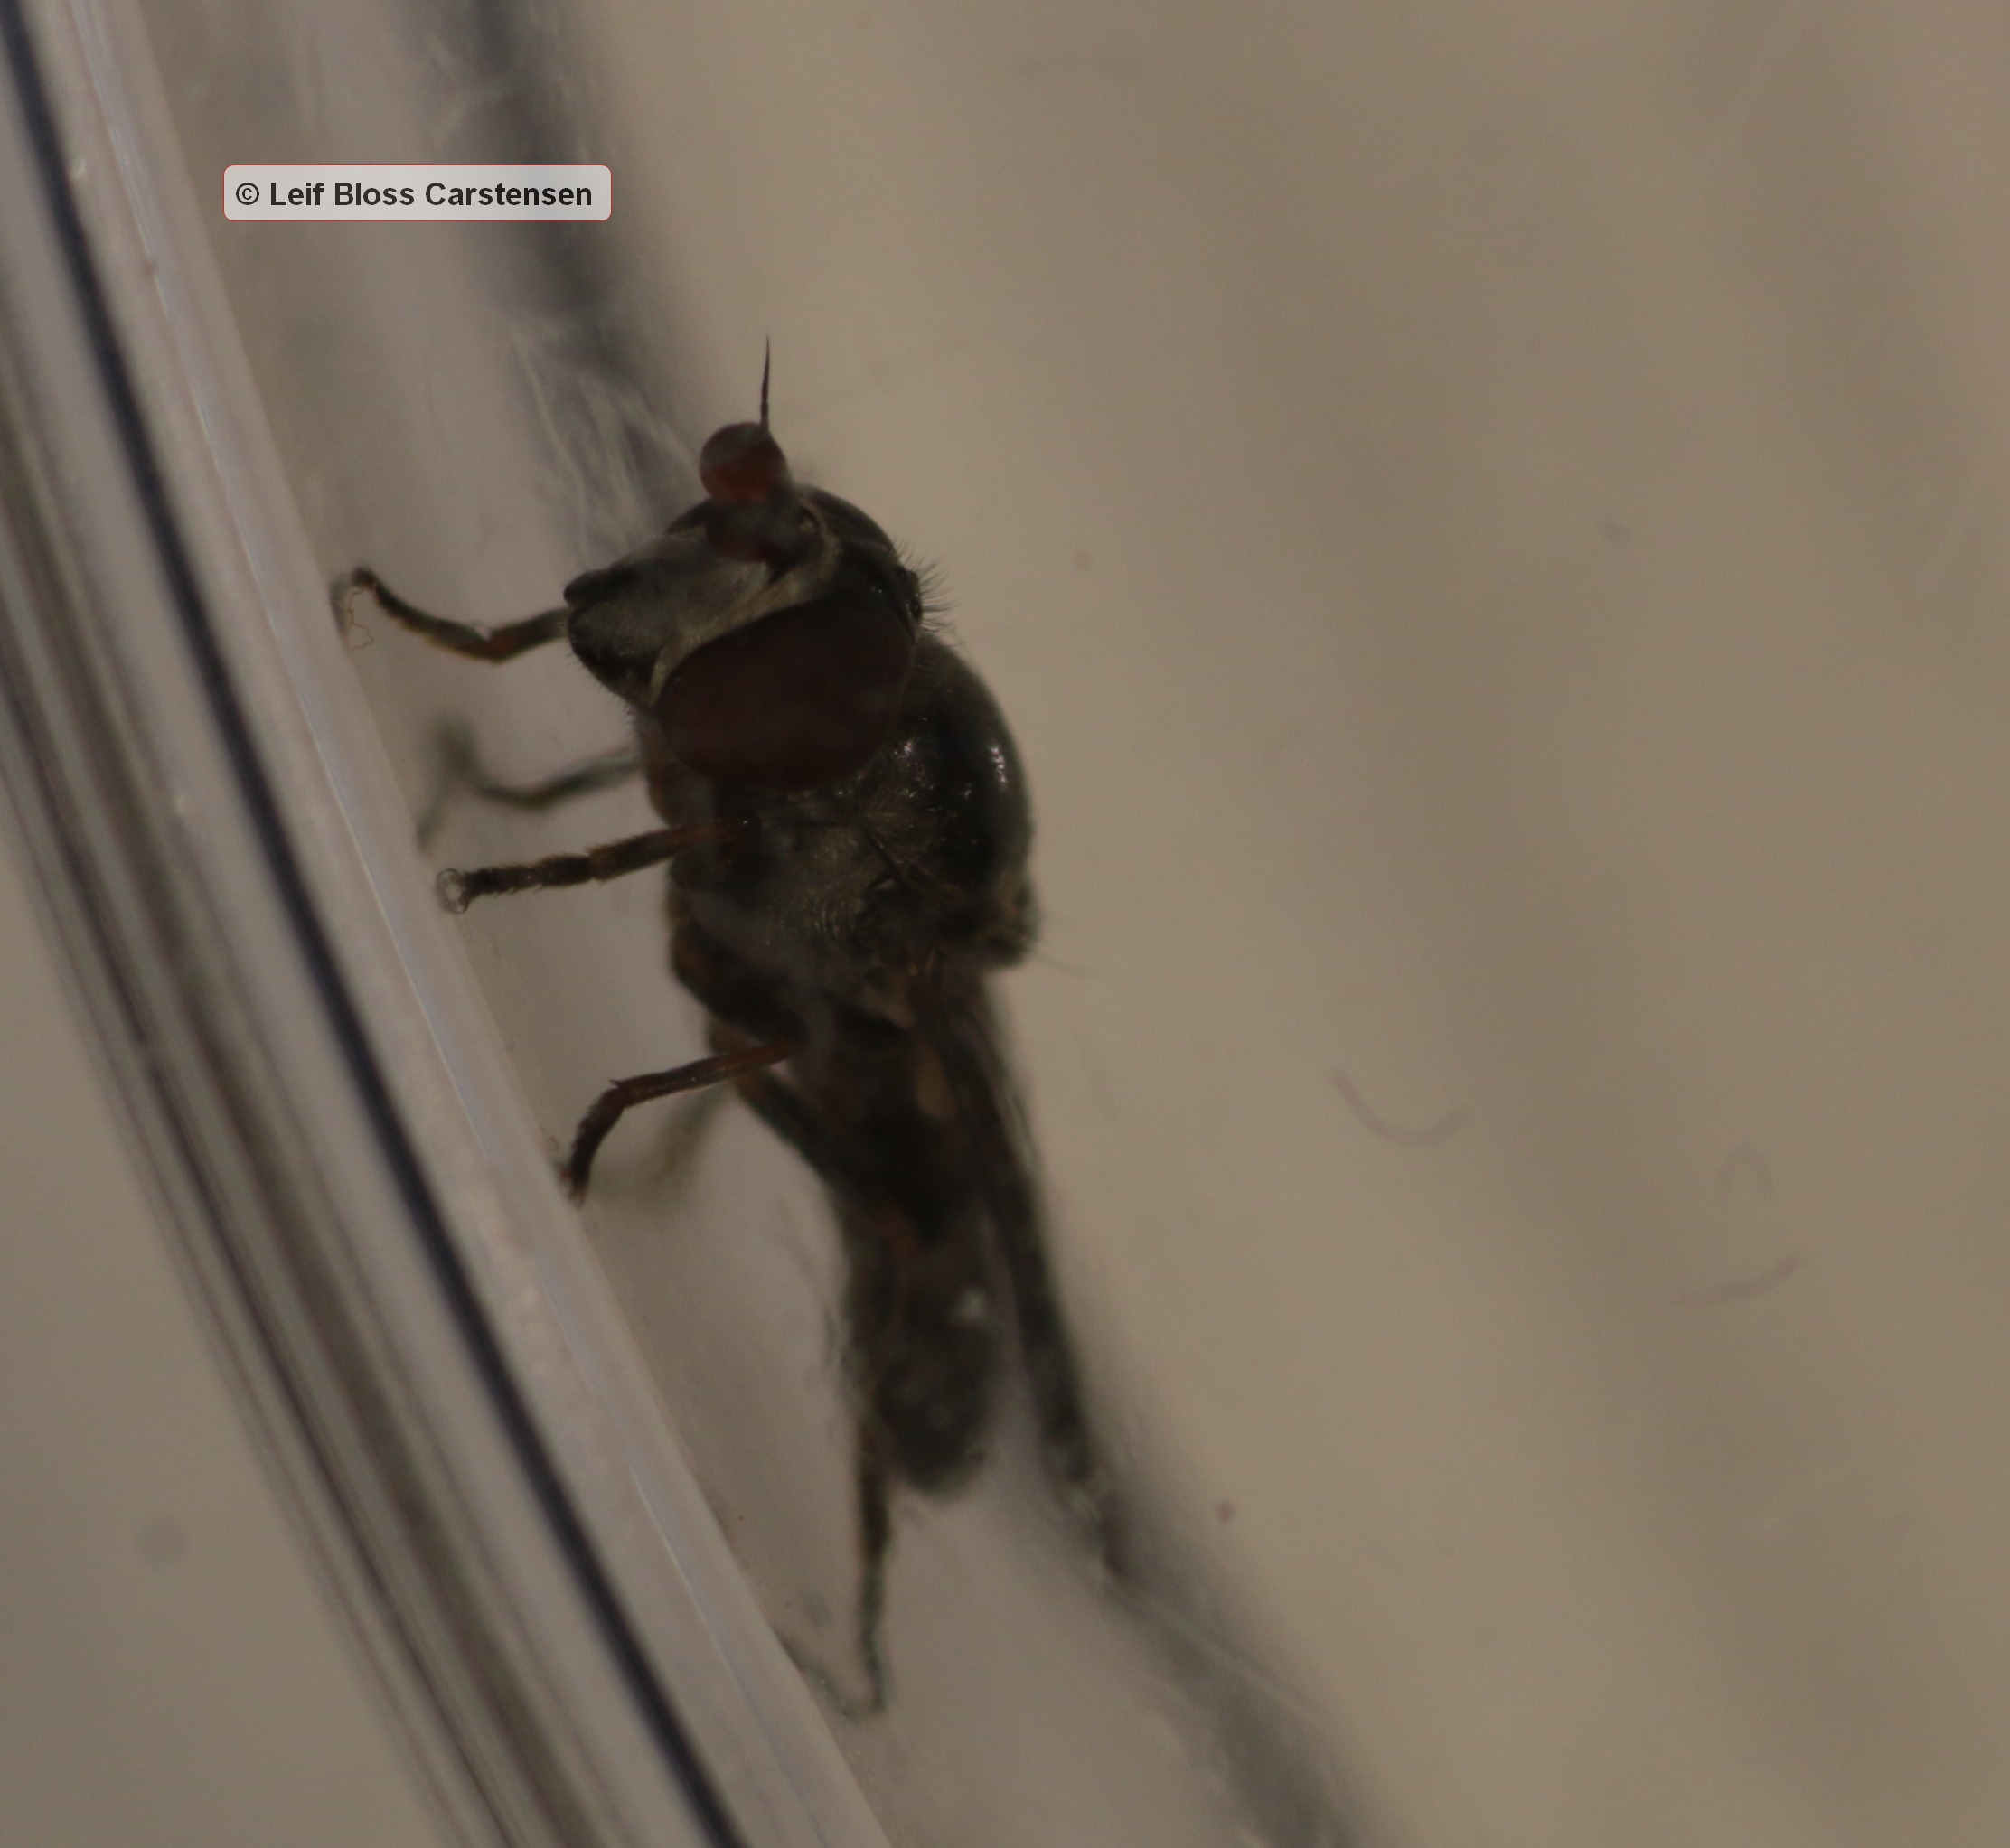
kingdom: Animalia
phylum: Arthropoda
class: Insecta
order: Diptera
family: Syrphidae
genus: Chamaesyrphus
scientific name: Chamaesyrphus lugubris
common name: Dværg-svirreflue
